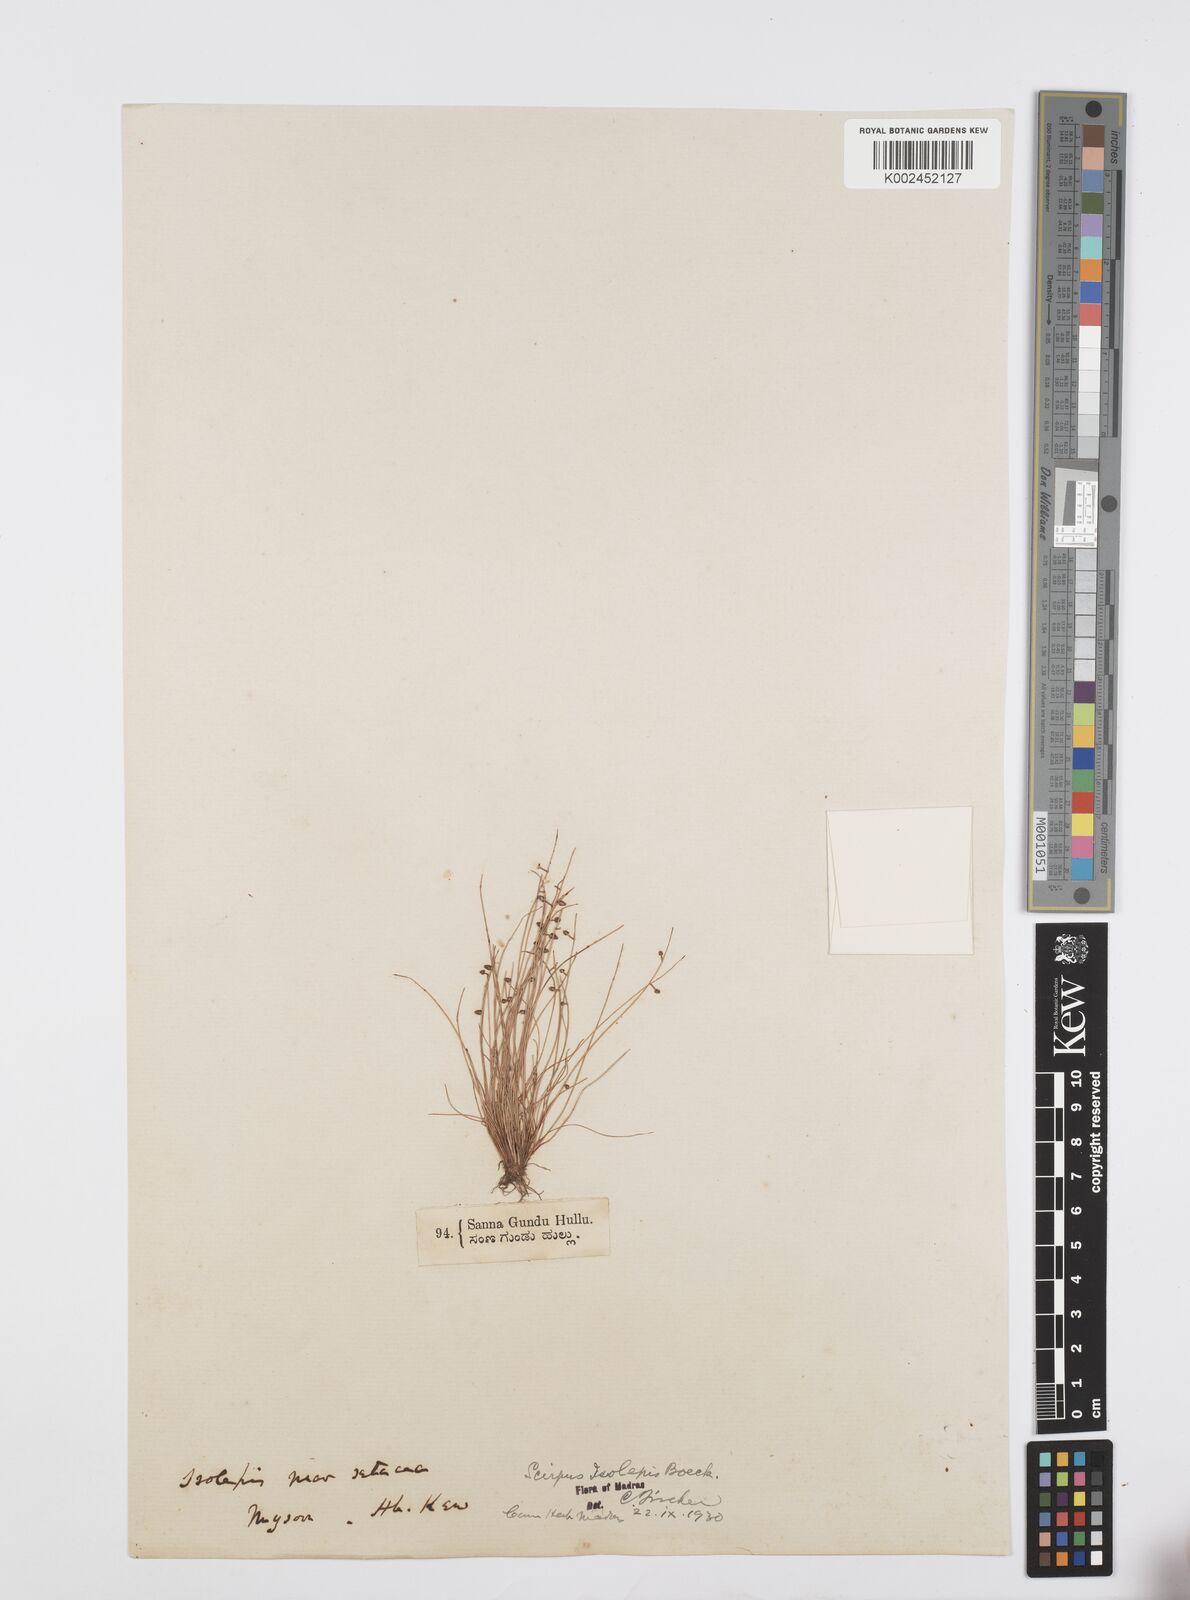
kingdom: Plantae
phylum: Tracheophyta
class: Liliopsida
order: Poales
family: Cyperaceae
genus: Cyperus
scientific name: Cyperus hemisphaericus
